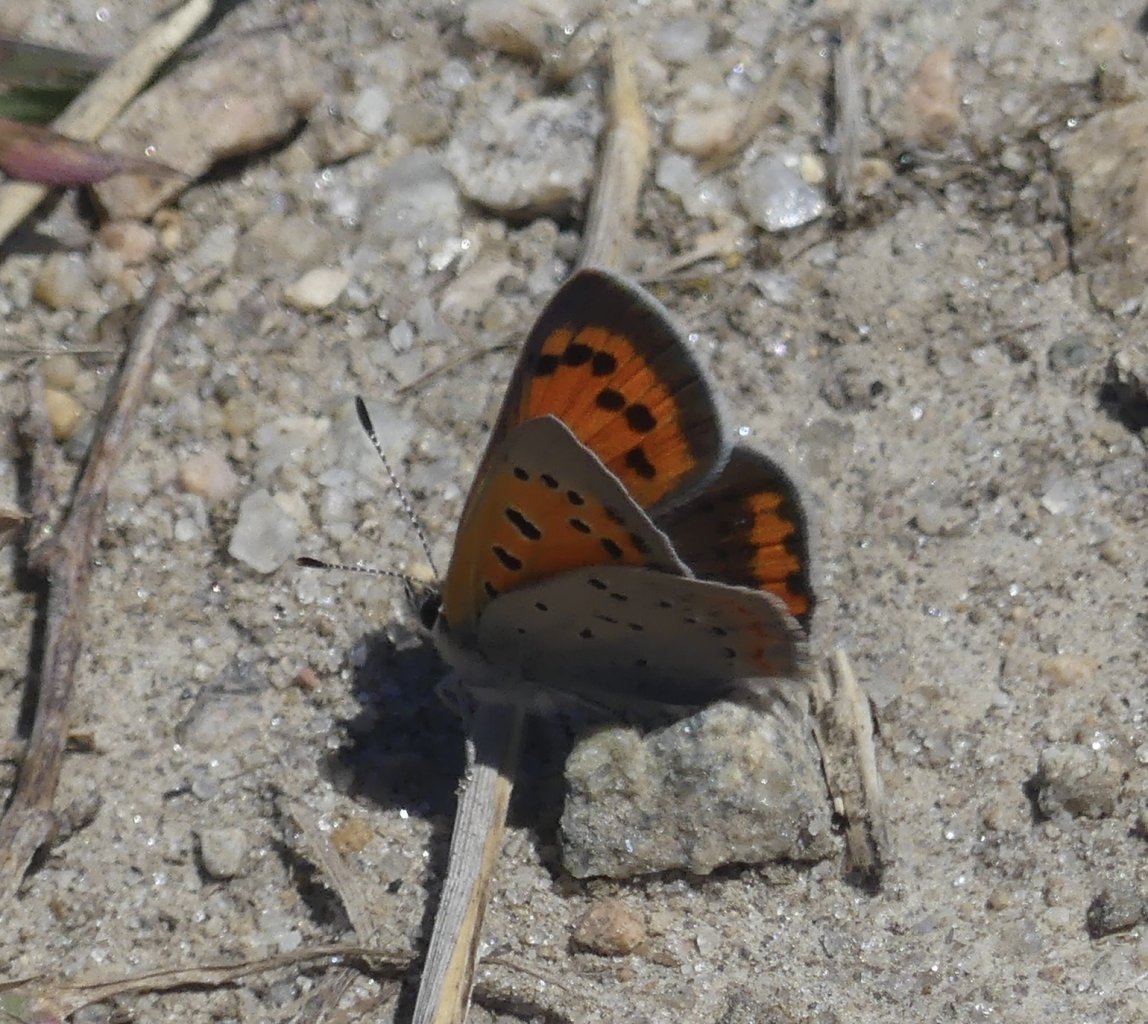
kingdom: Animalia
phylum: Arthropoda
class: Insecta
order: Lepidoptera
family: Lycaenidae
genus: Lycaena
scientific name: Lycaena phlaeas
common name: American Copper
